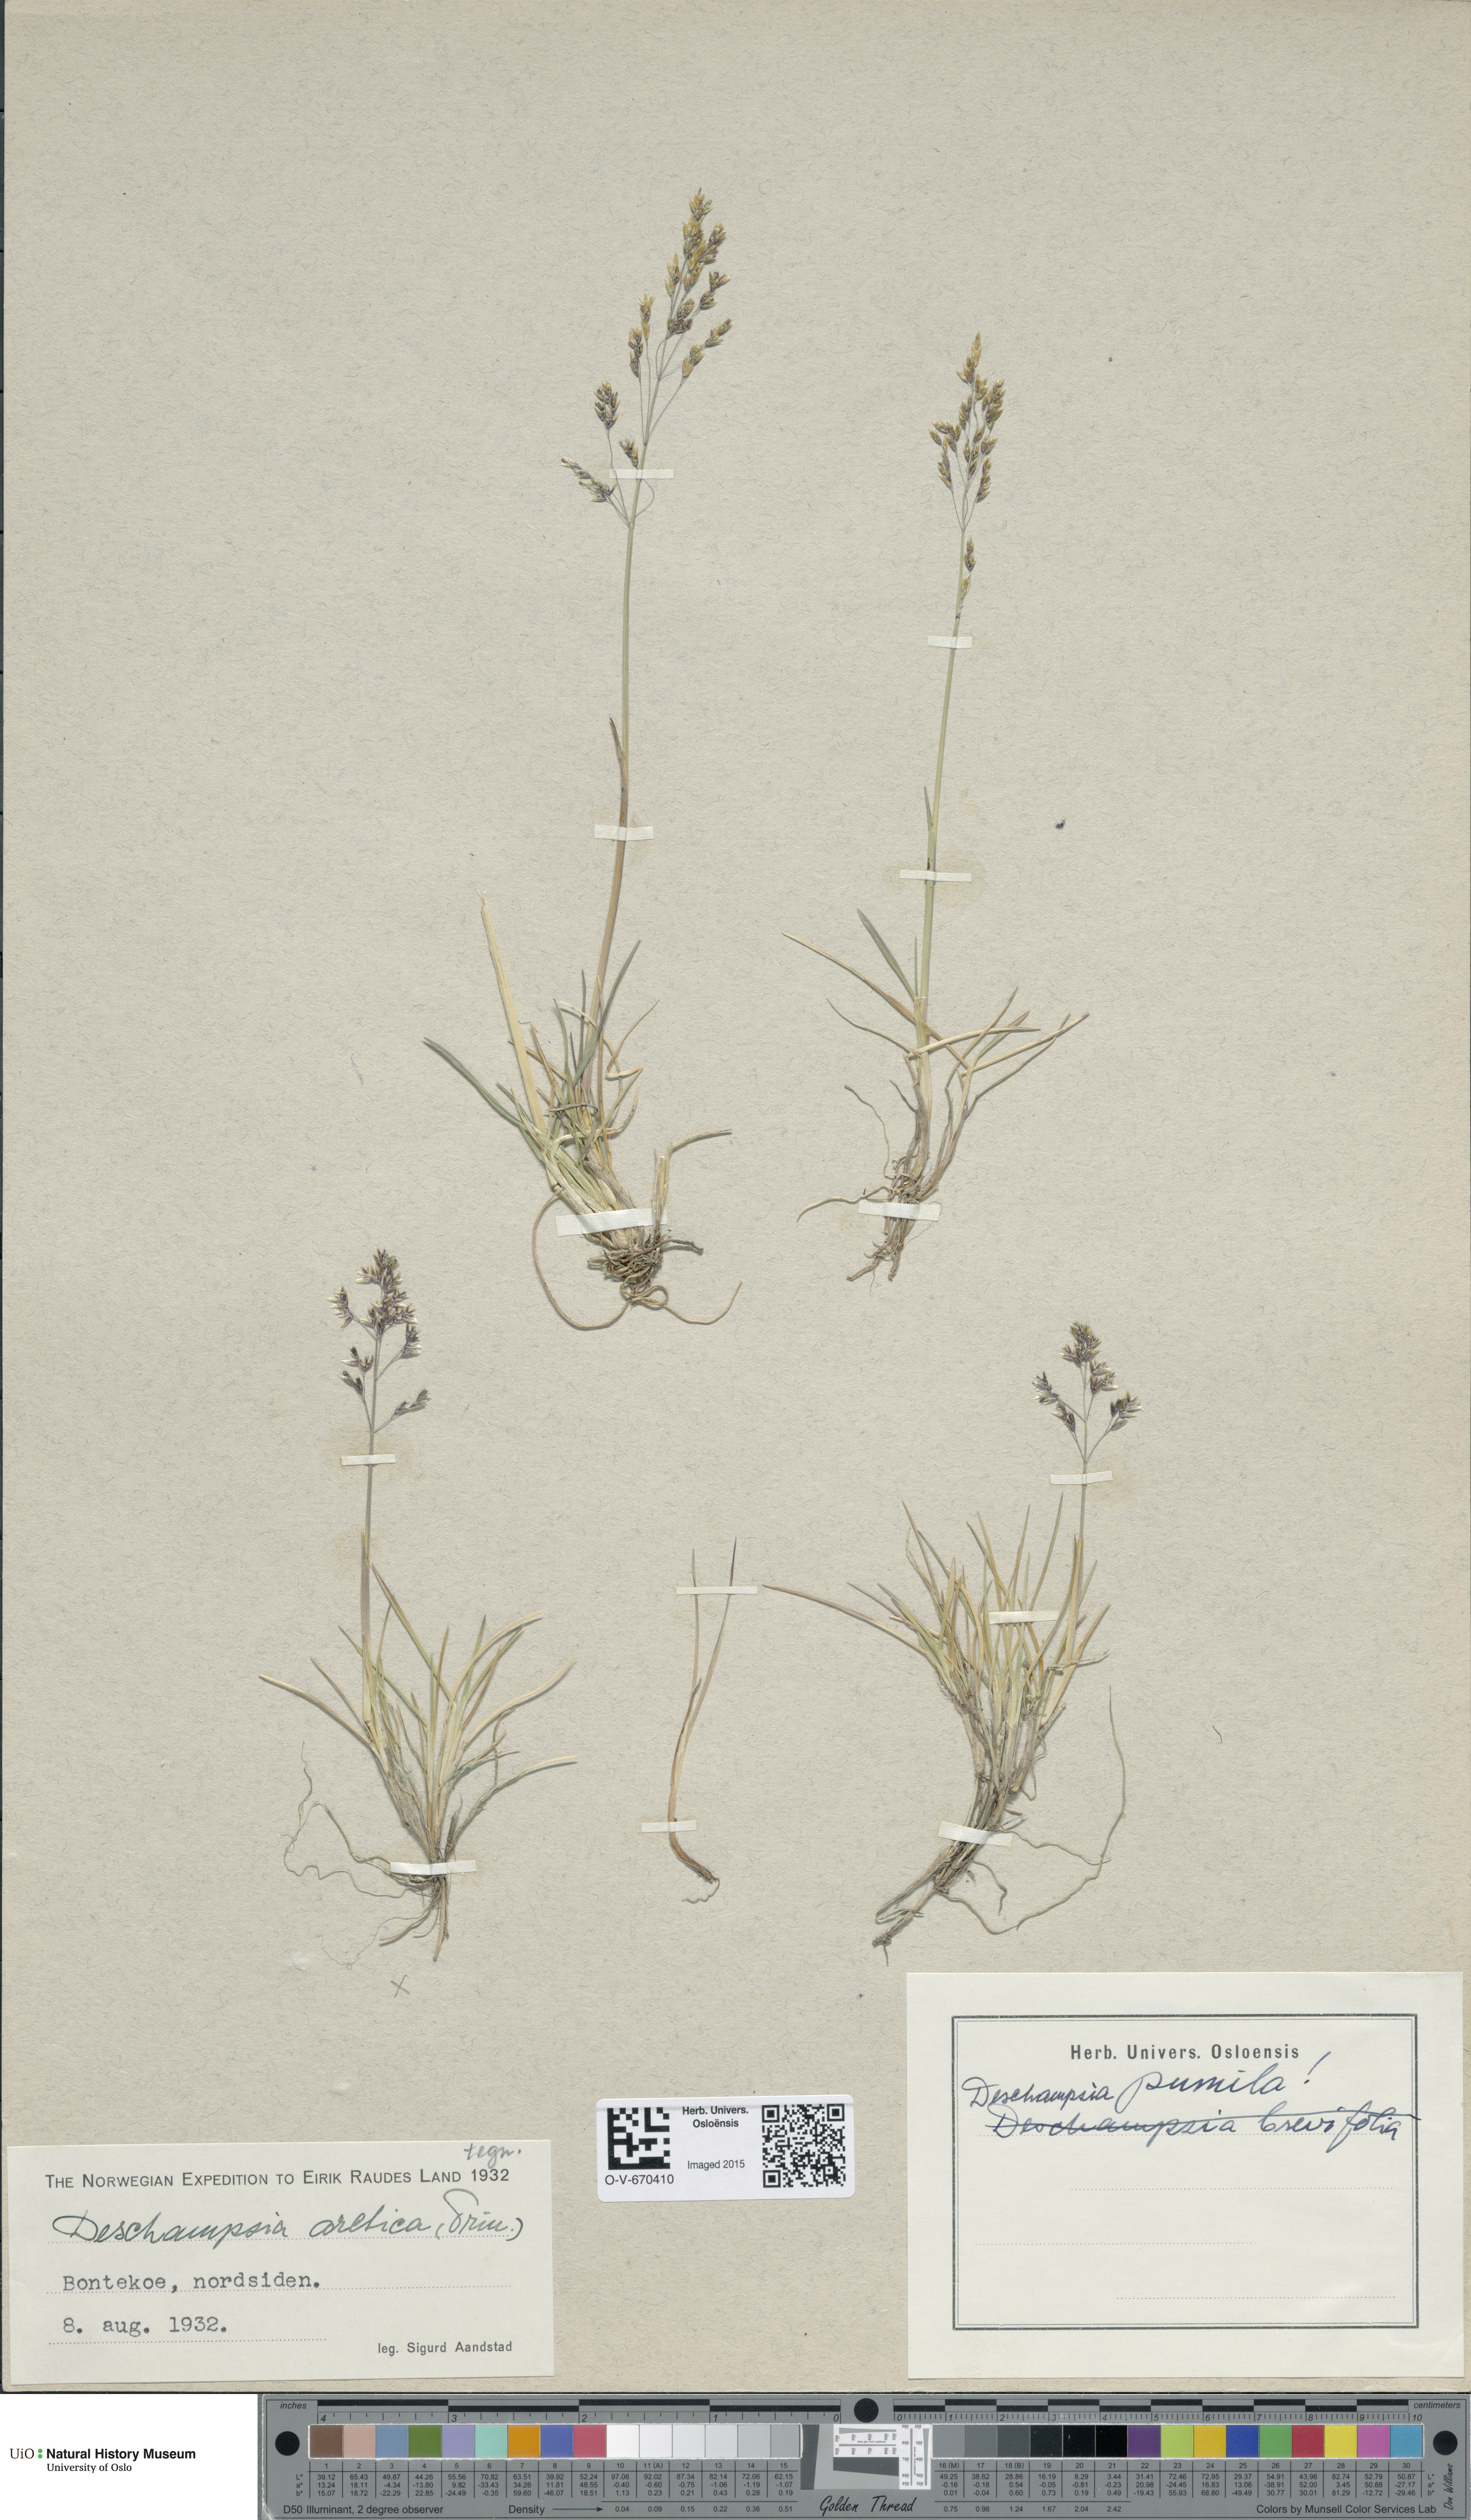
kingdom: Plantae
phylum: Tracheophyta
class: Liliopsida
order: Poales
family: Poaceae
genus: Deschampsia
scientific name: Deschampsia cespitosa
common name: Tufted hair-grass
